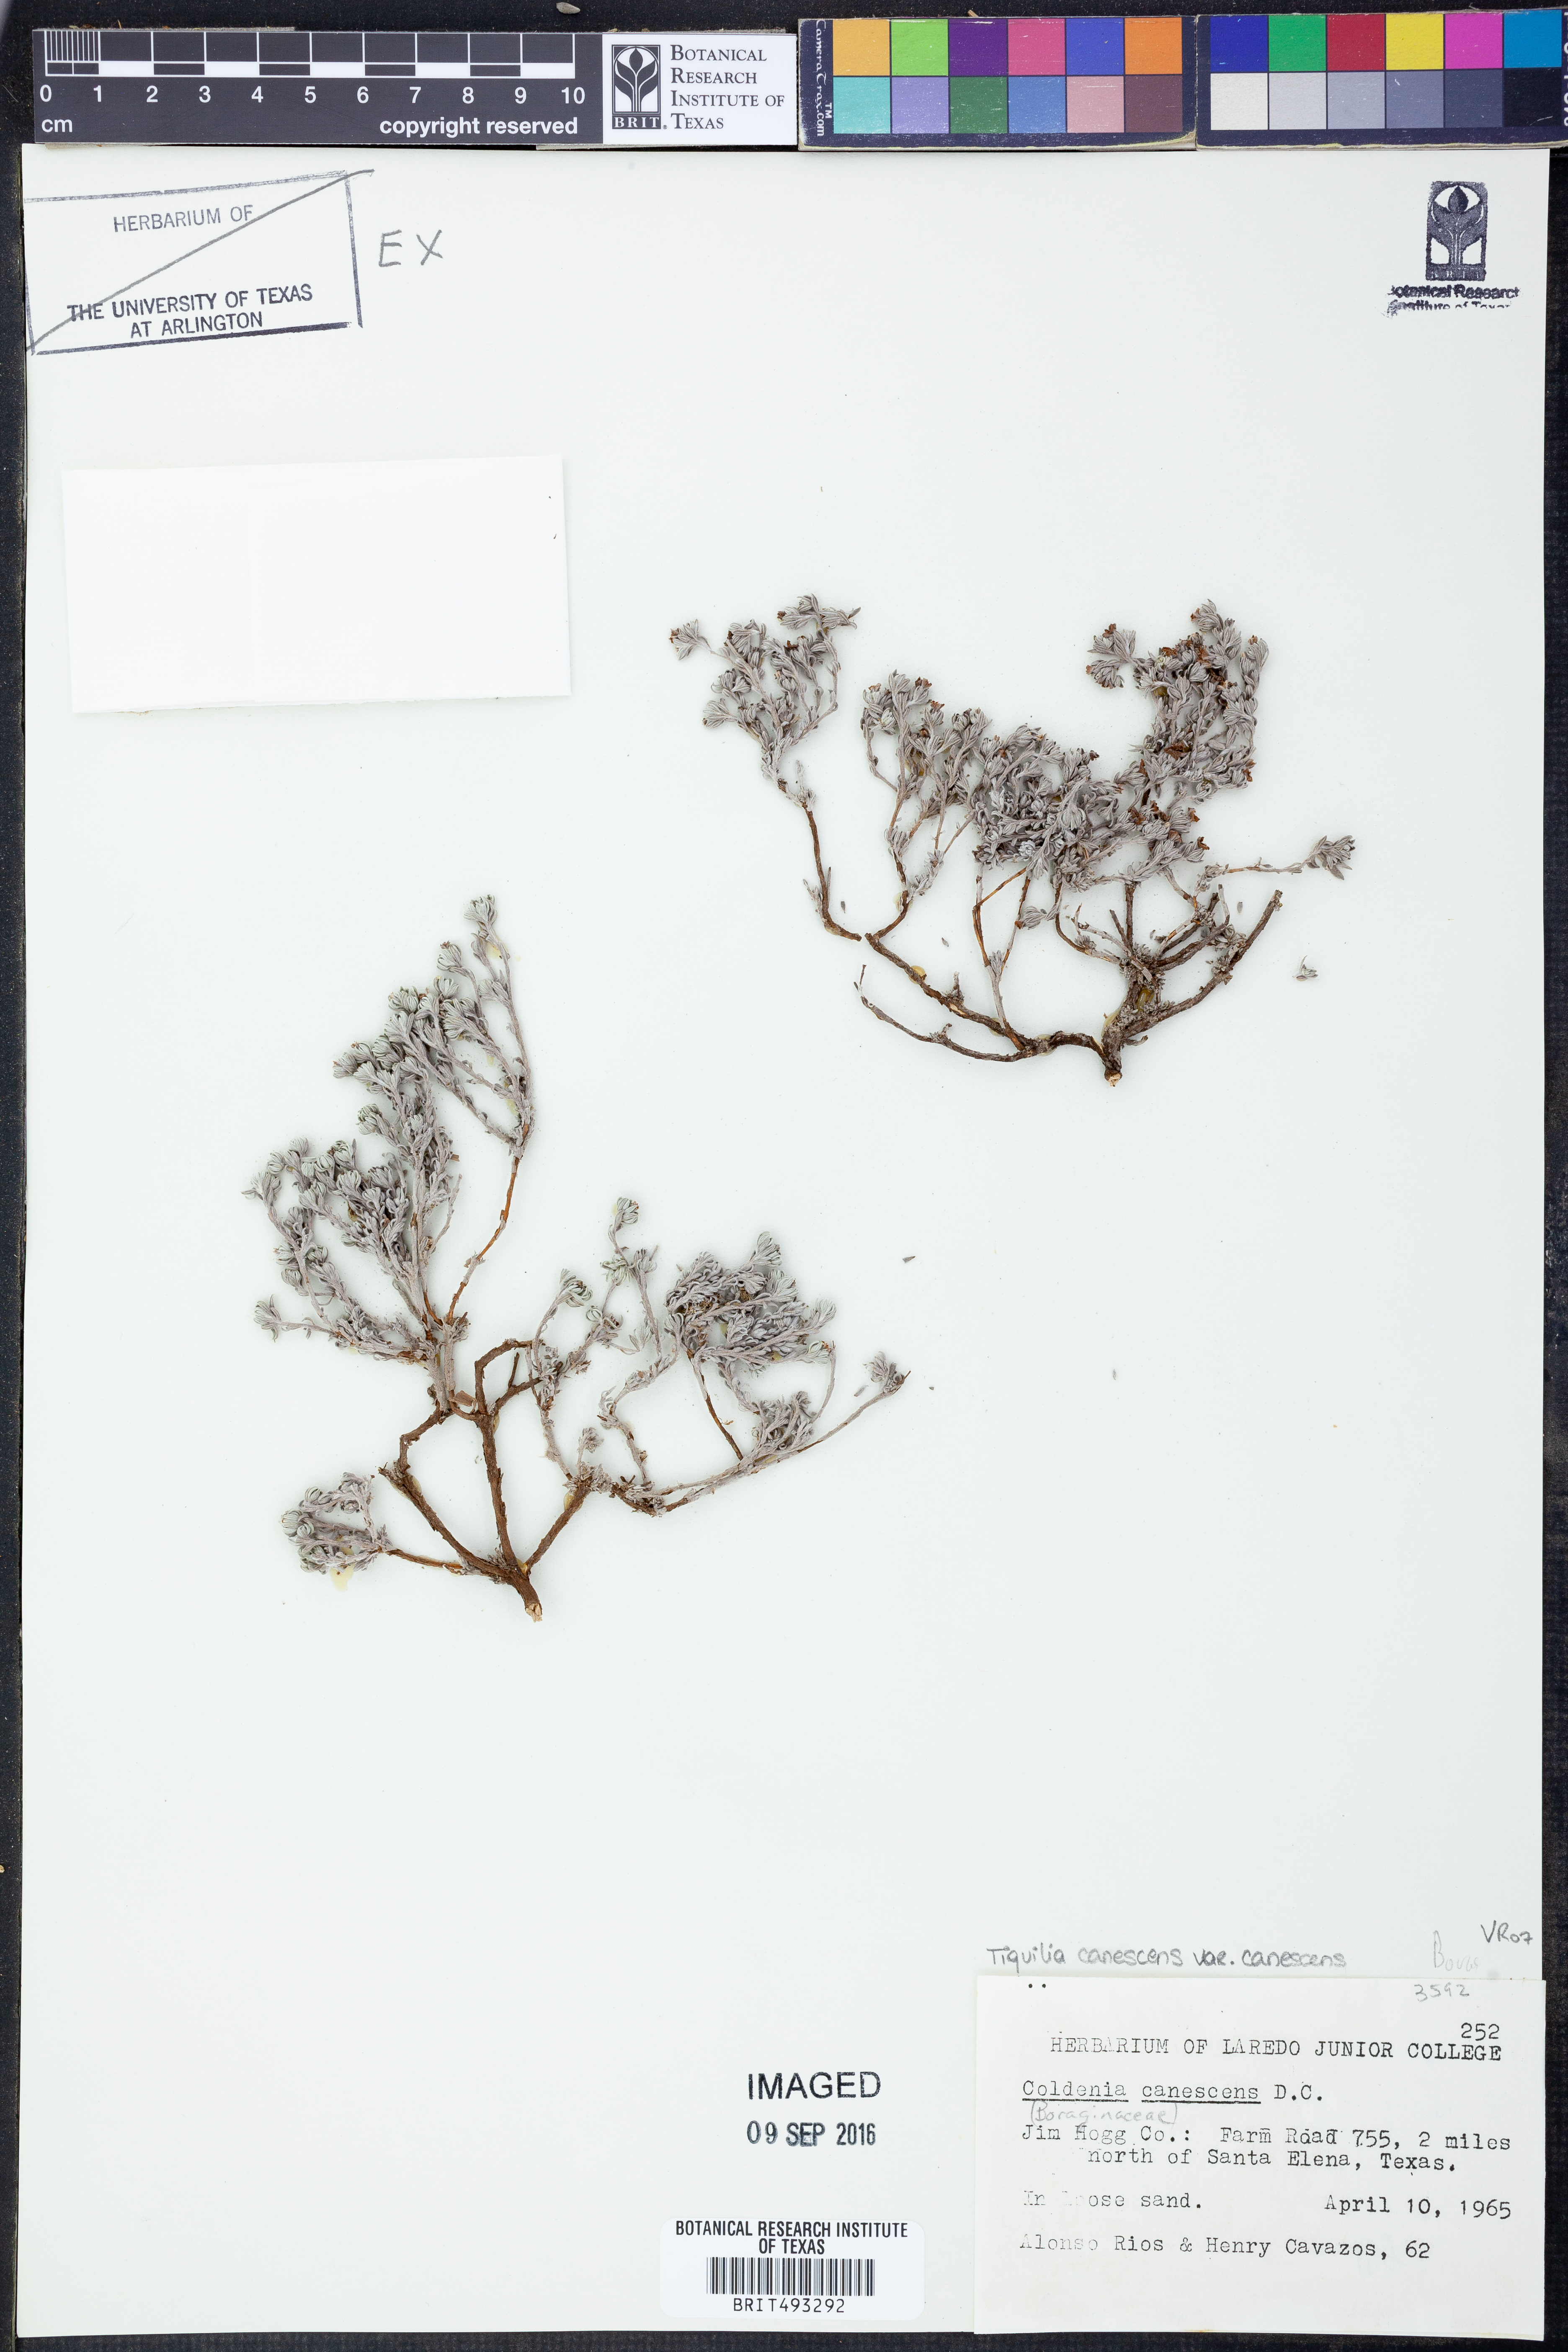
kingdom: Plantae
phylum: Tracheophyta
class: Magnoliopsida
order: Boraginales
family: Ehretiaceae
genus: Tiquilia
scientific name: Tiquilia canescens
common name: Hairy tiquilia
